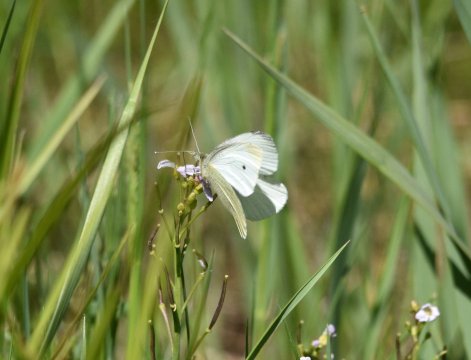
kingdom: Animalia
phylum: Arthropoda
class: Insecta
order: Lepidoptera
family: Pieridae
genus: Pieris
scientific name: Pieris rapae
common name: Cabbage White
